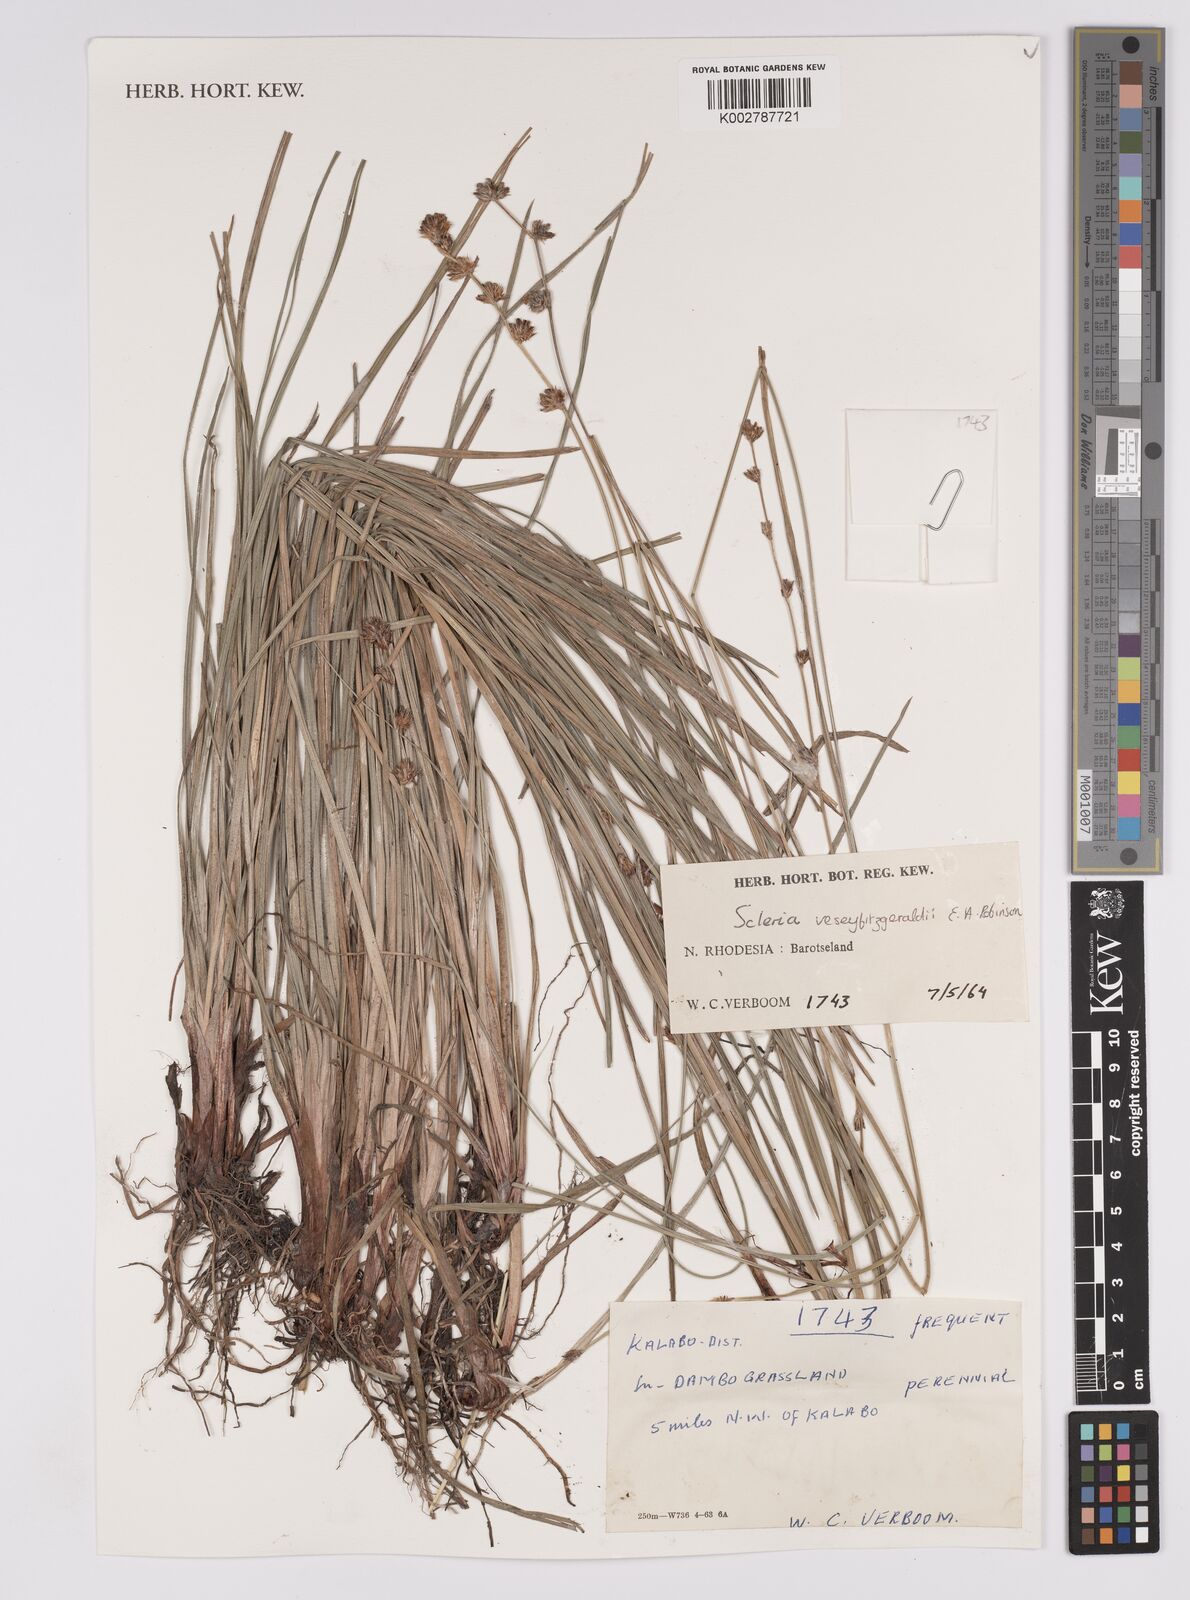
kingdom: Plantae
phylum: Tracheophyta
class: Liliopsida
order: Poales
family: Cyperaceae
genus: Scleria
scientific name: Scleria veseyfitzgeraldii
